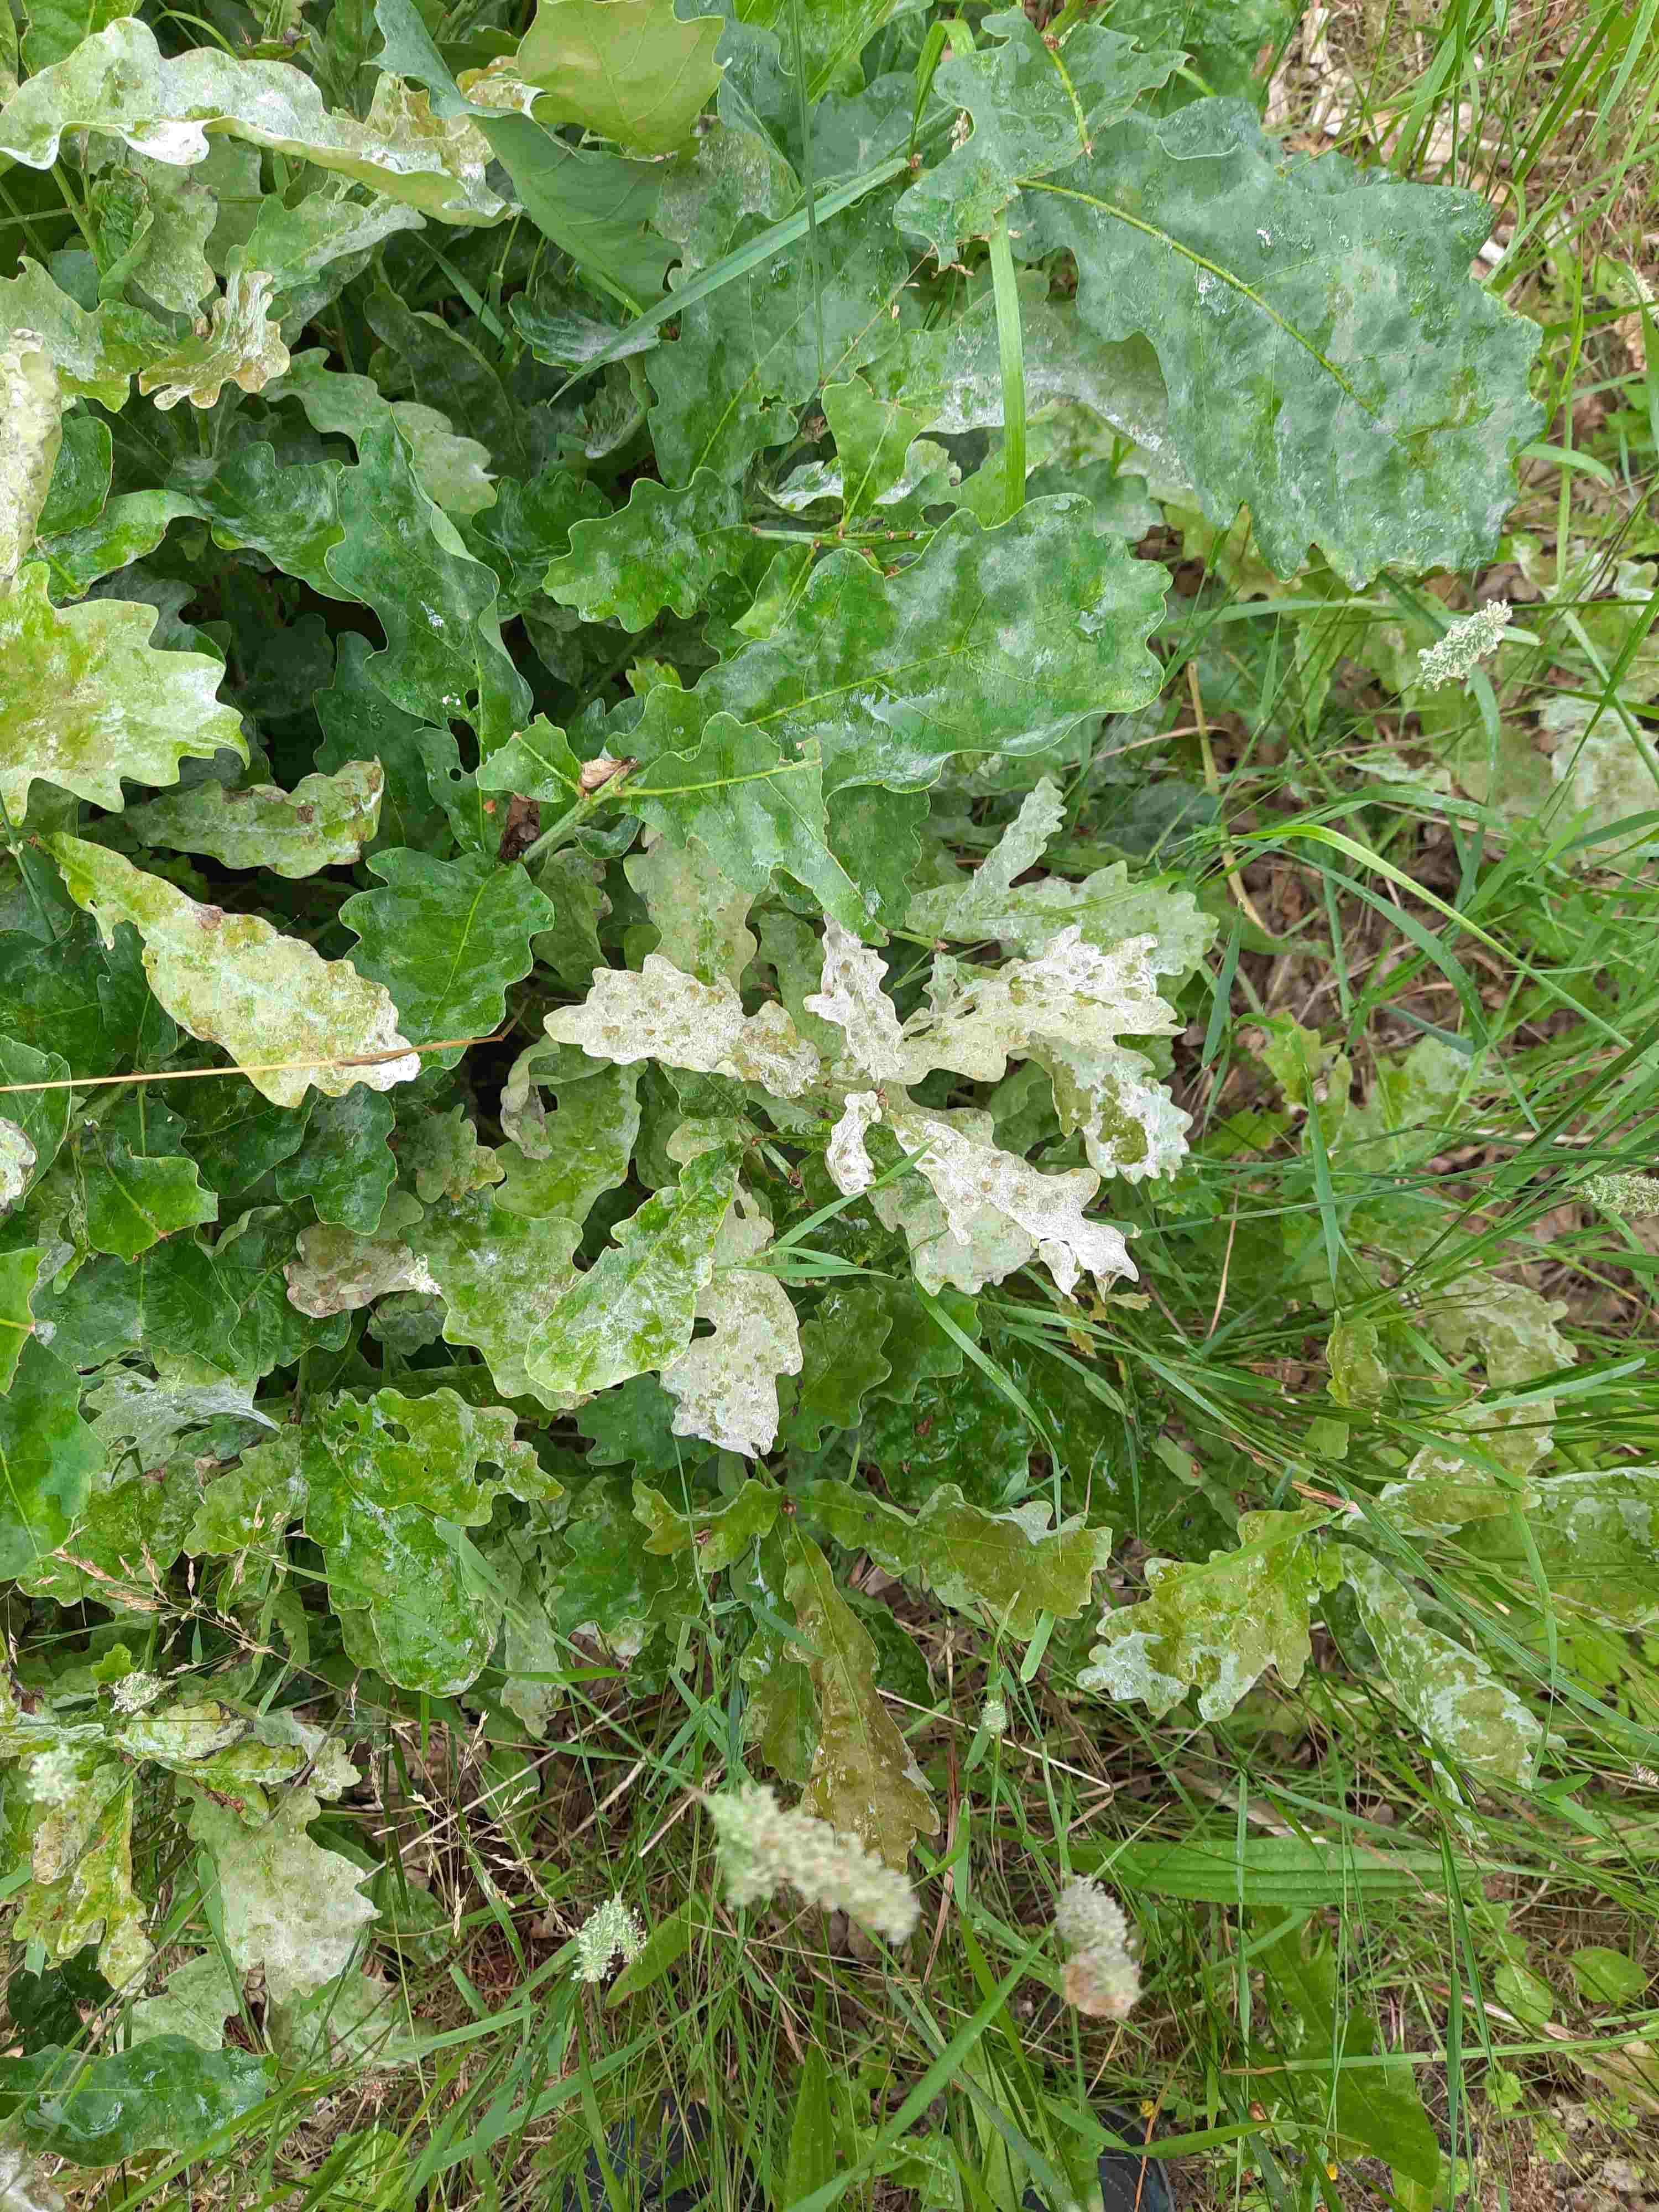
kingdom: Fungi
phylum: Ascomycota
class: Leotiomycetes
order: Helotiales
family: Erysiphaceae
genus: Erysiphe
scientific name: Erysiphe alphitoides
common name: ege-meldug
